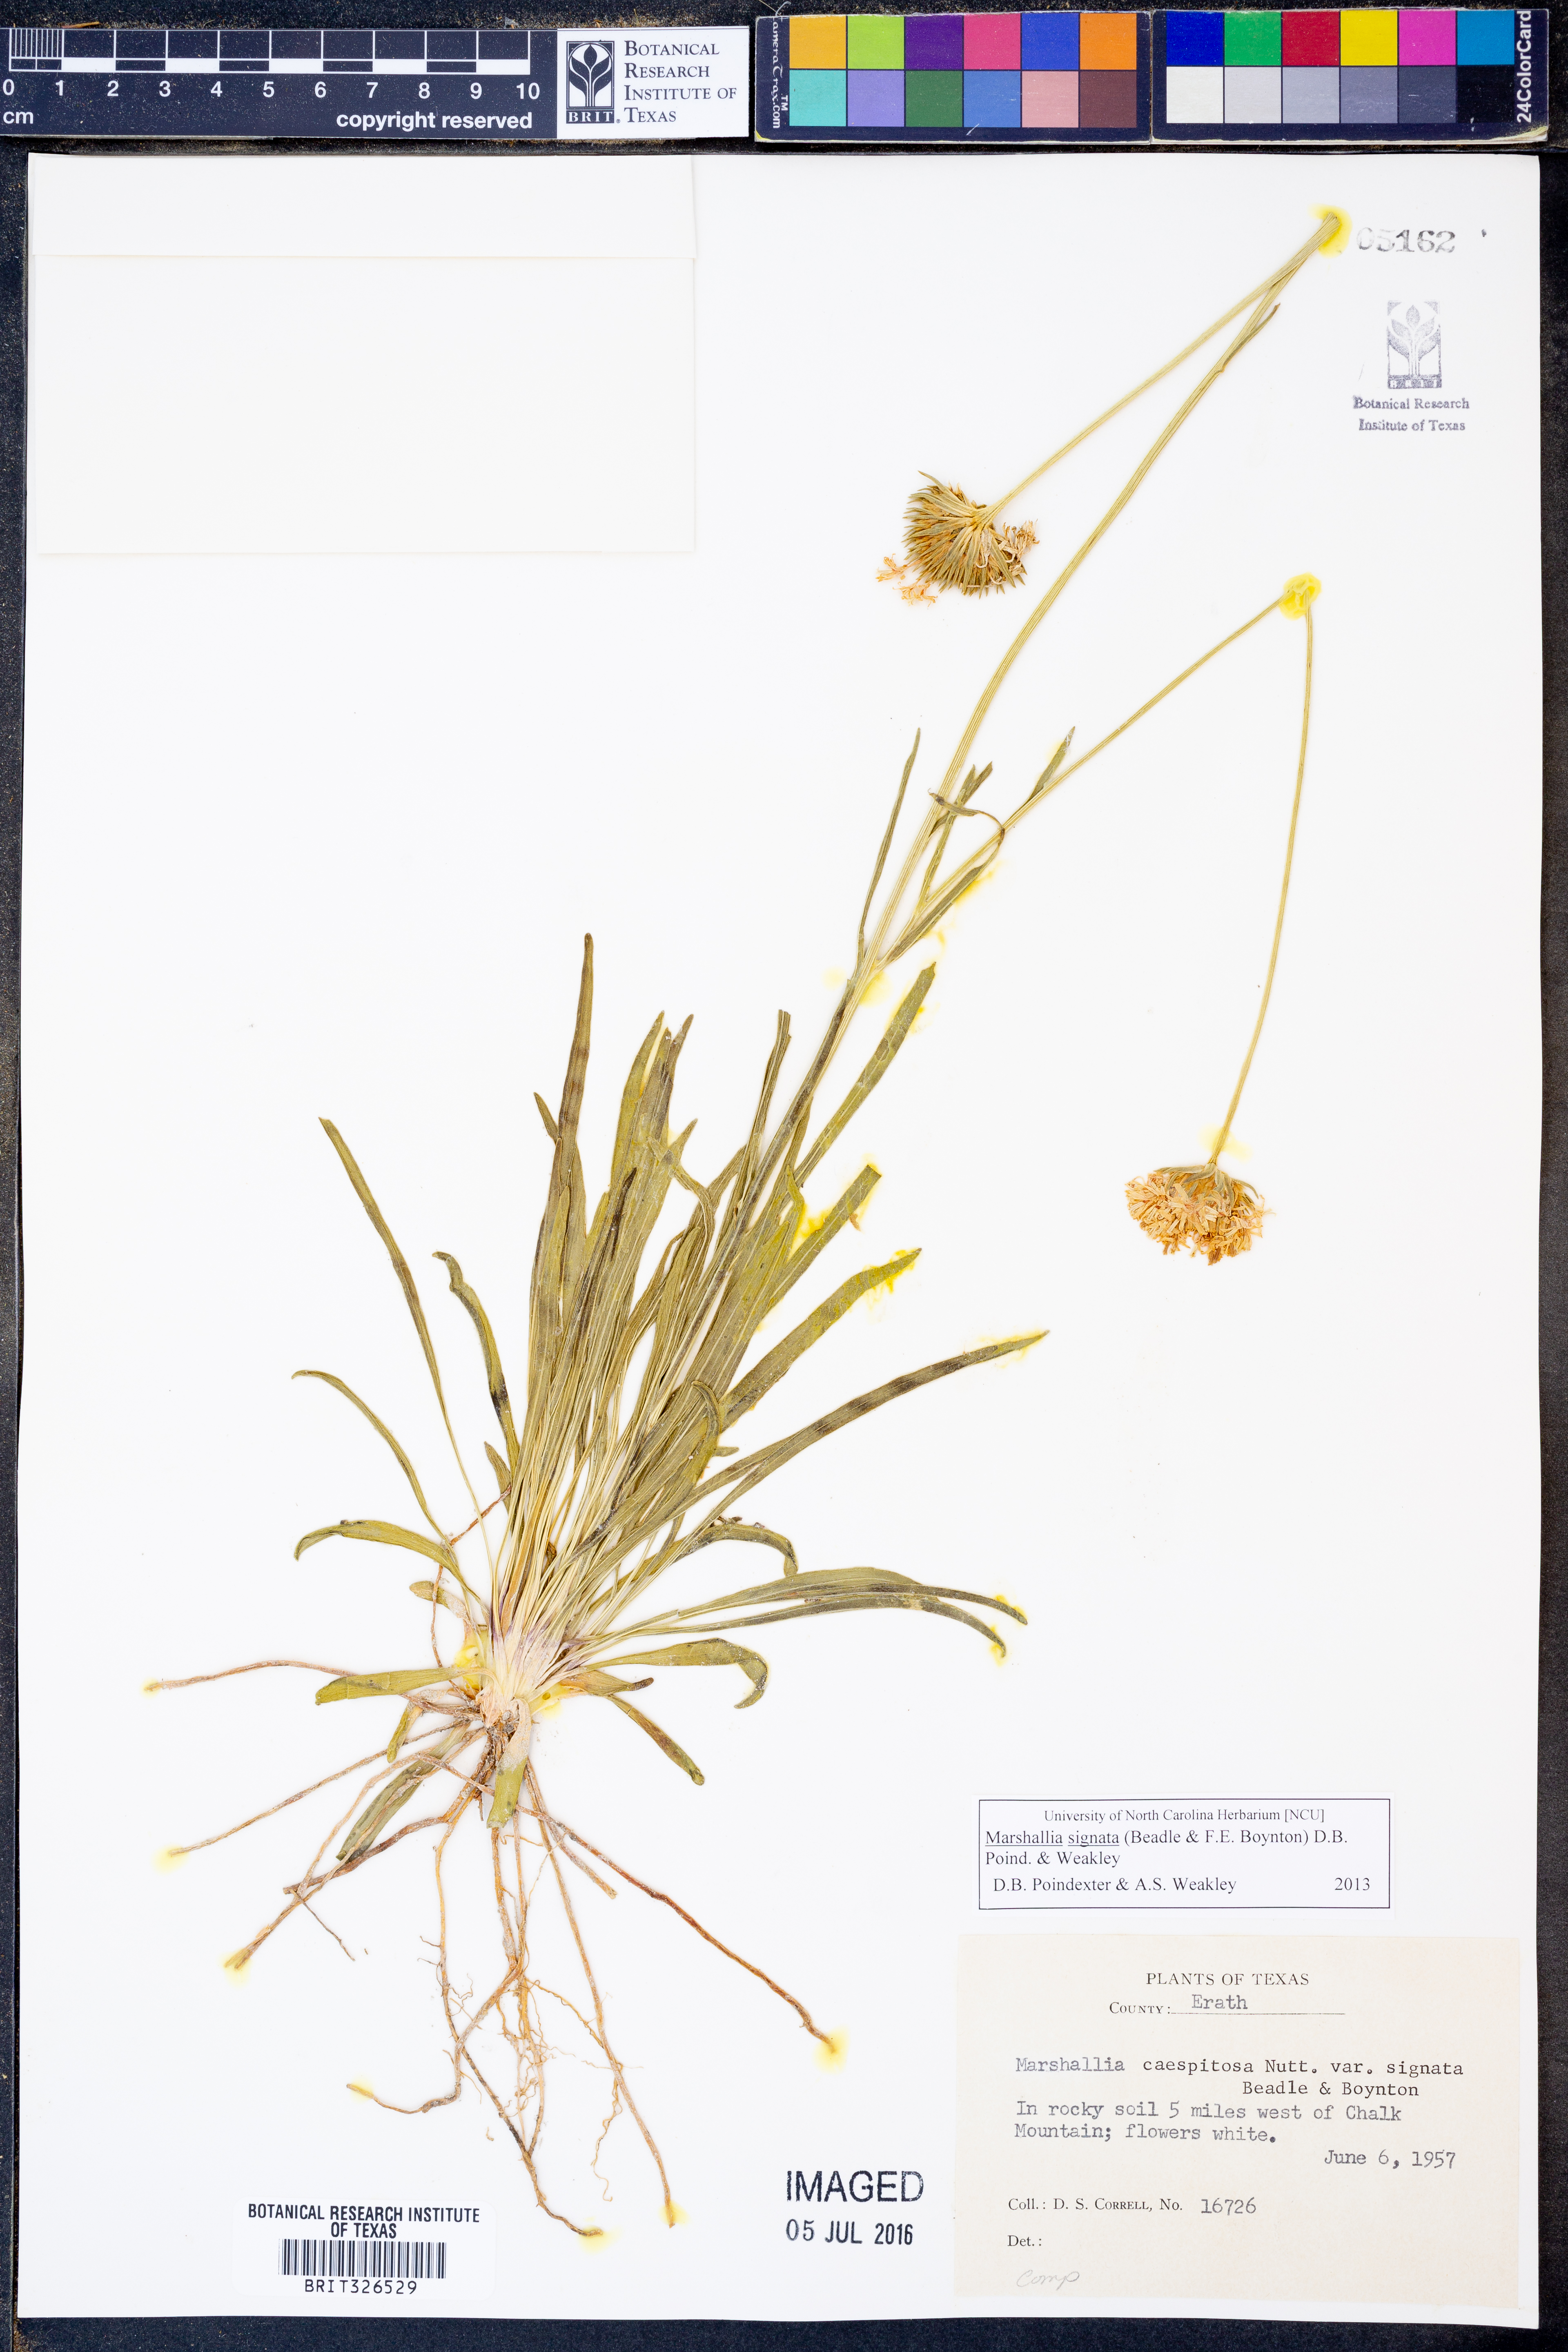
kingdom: Plantae
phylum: Tracheophyta
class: Magnoliopsida
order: Asterales
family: Asteraceae
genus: Marshallia
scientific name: Marshallia
